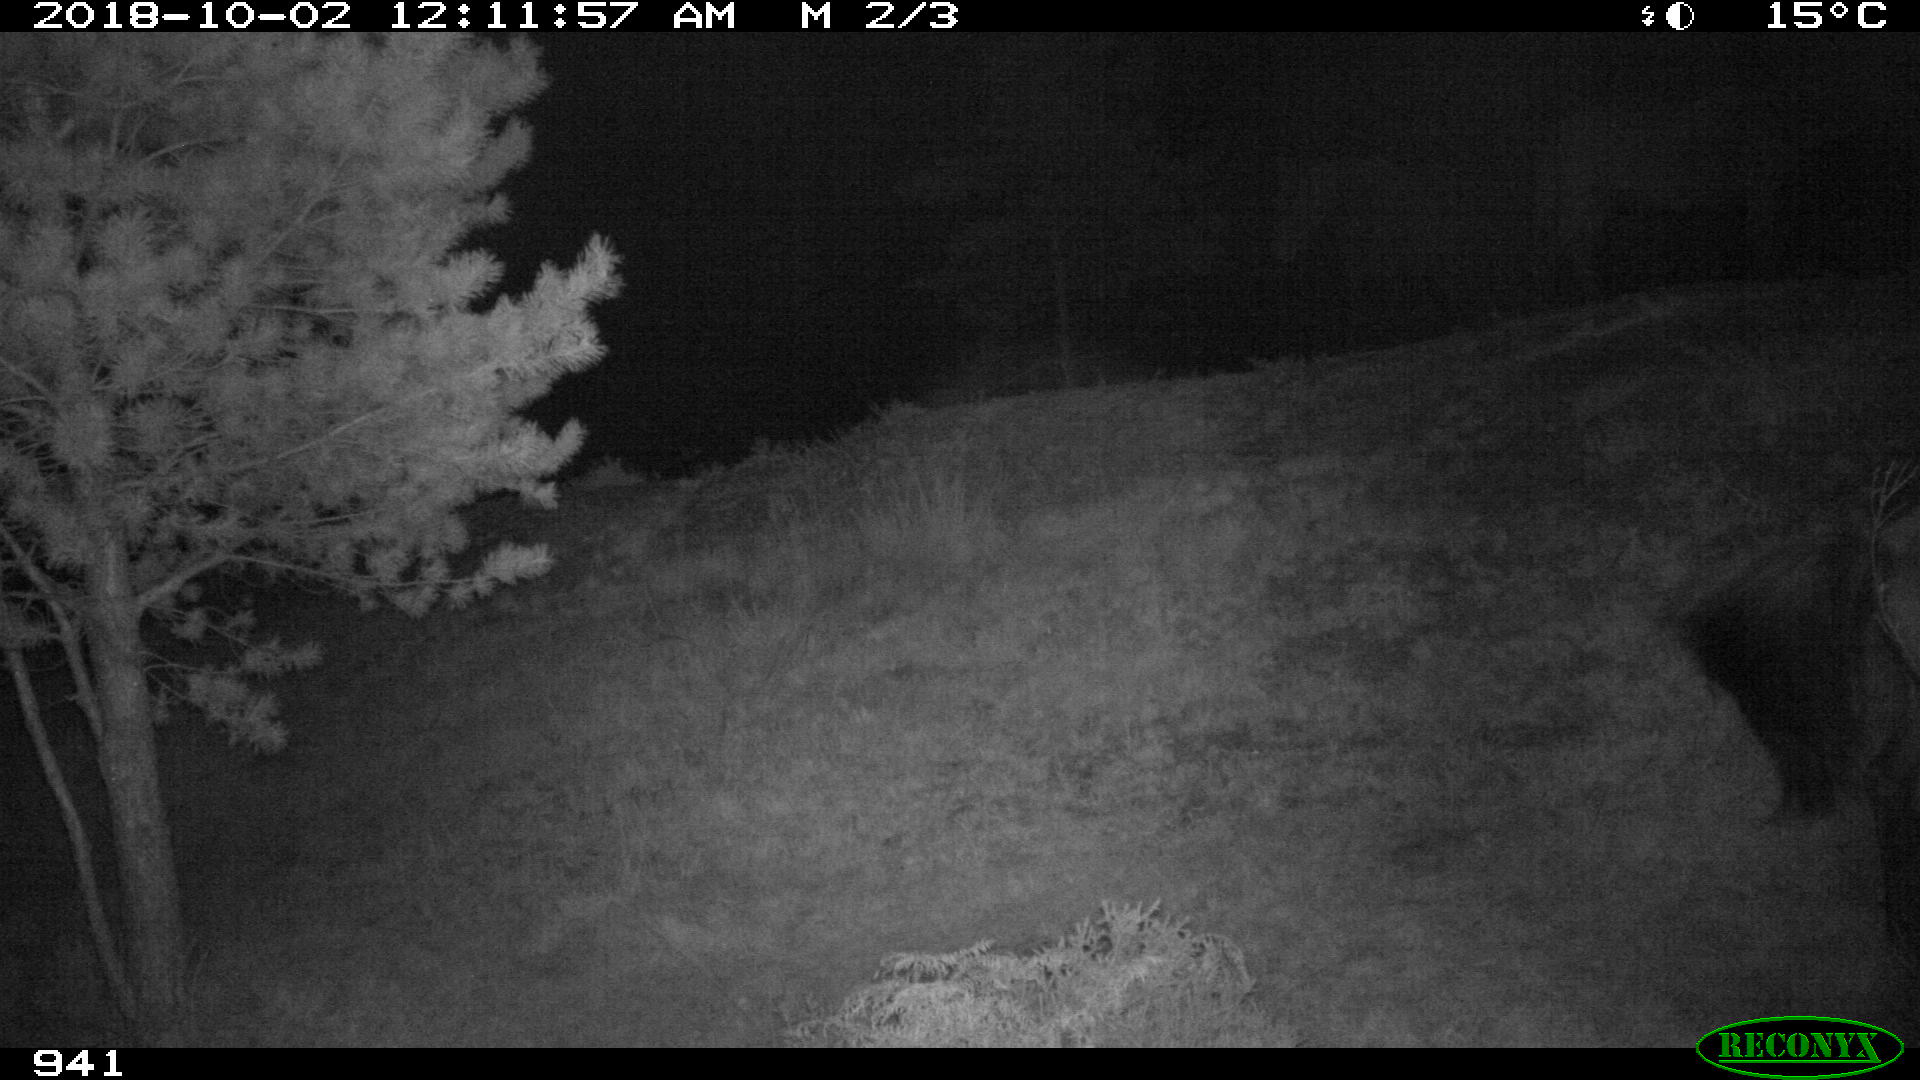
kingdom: Animalia
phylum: Chordata
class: Mammalia
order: Perissodactyla
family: Equidae
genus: Equus
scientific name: Equus caballus
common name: Horse
